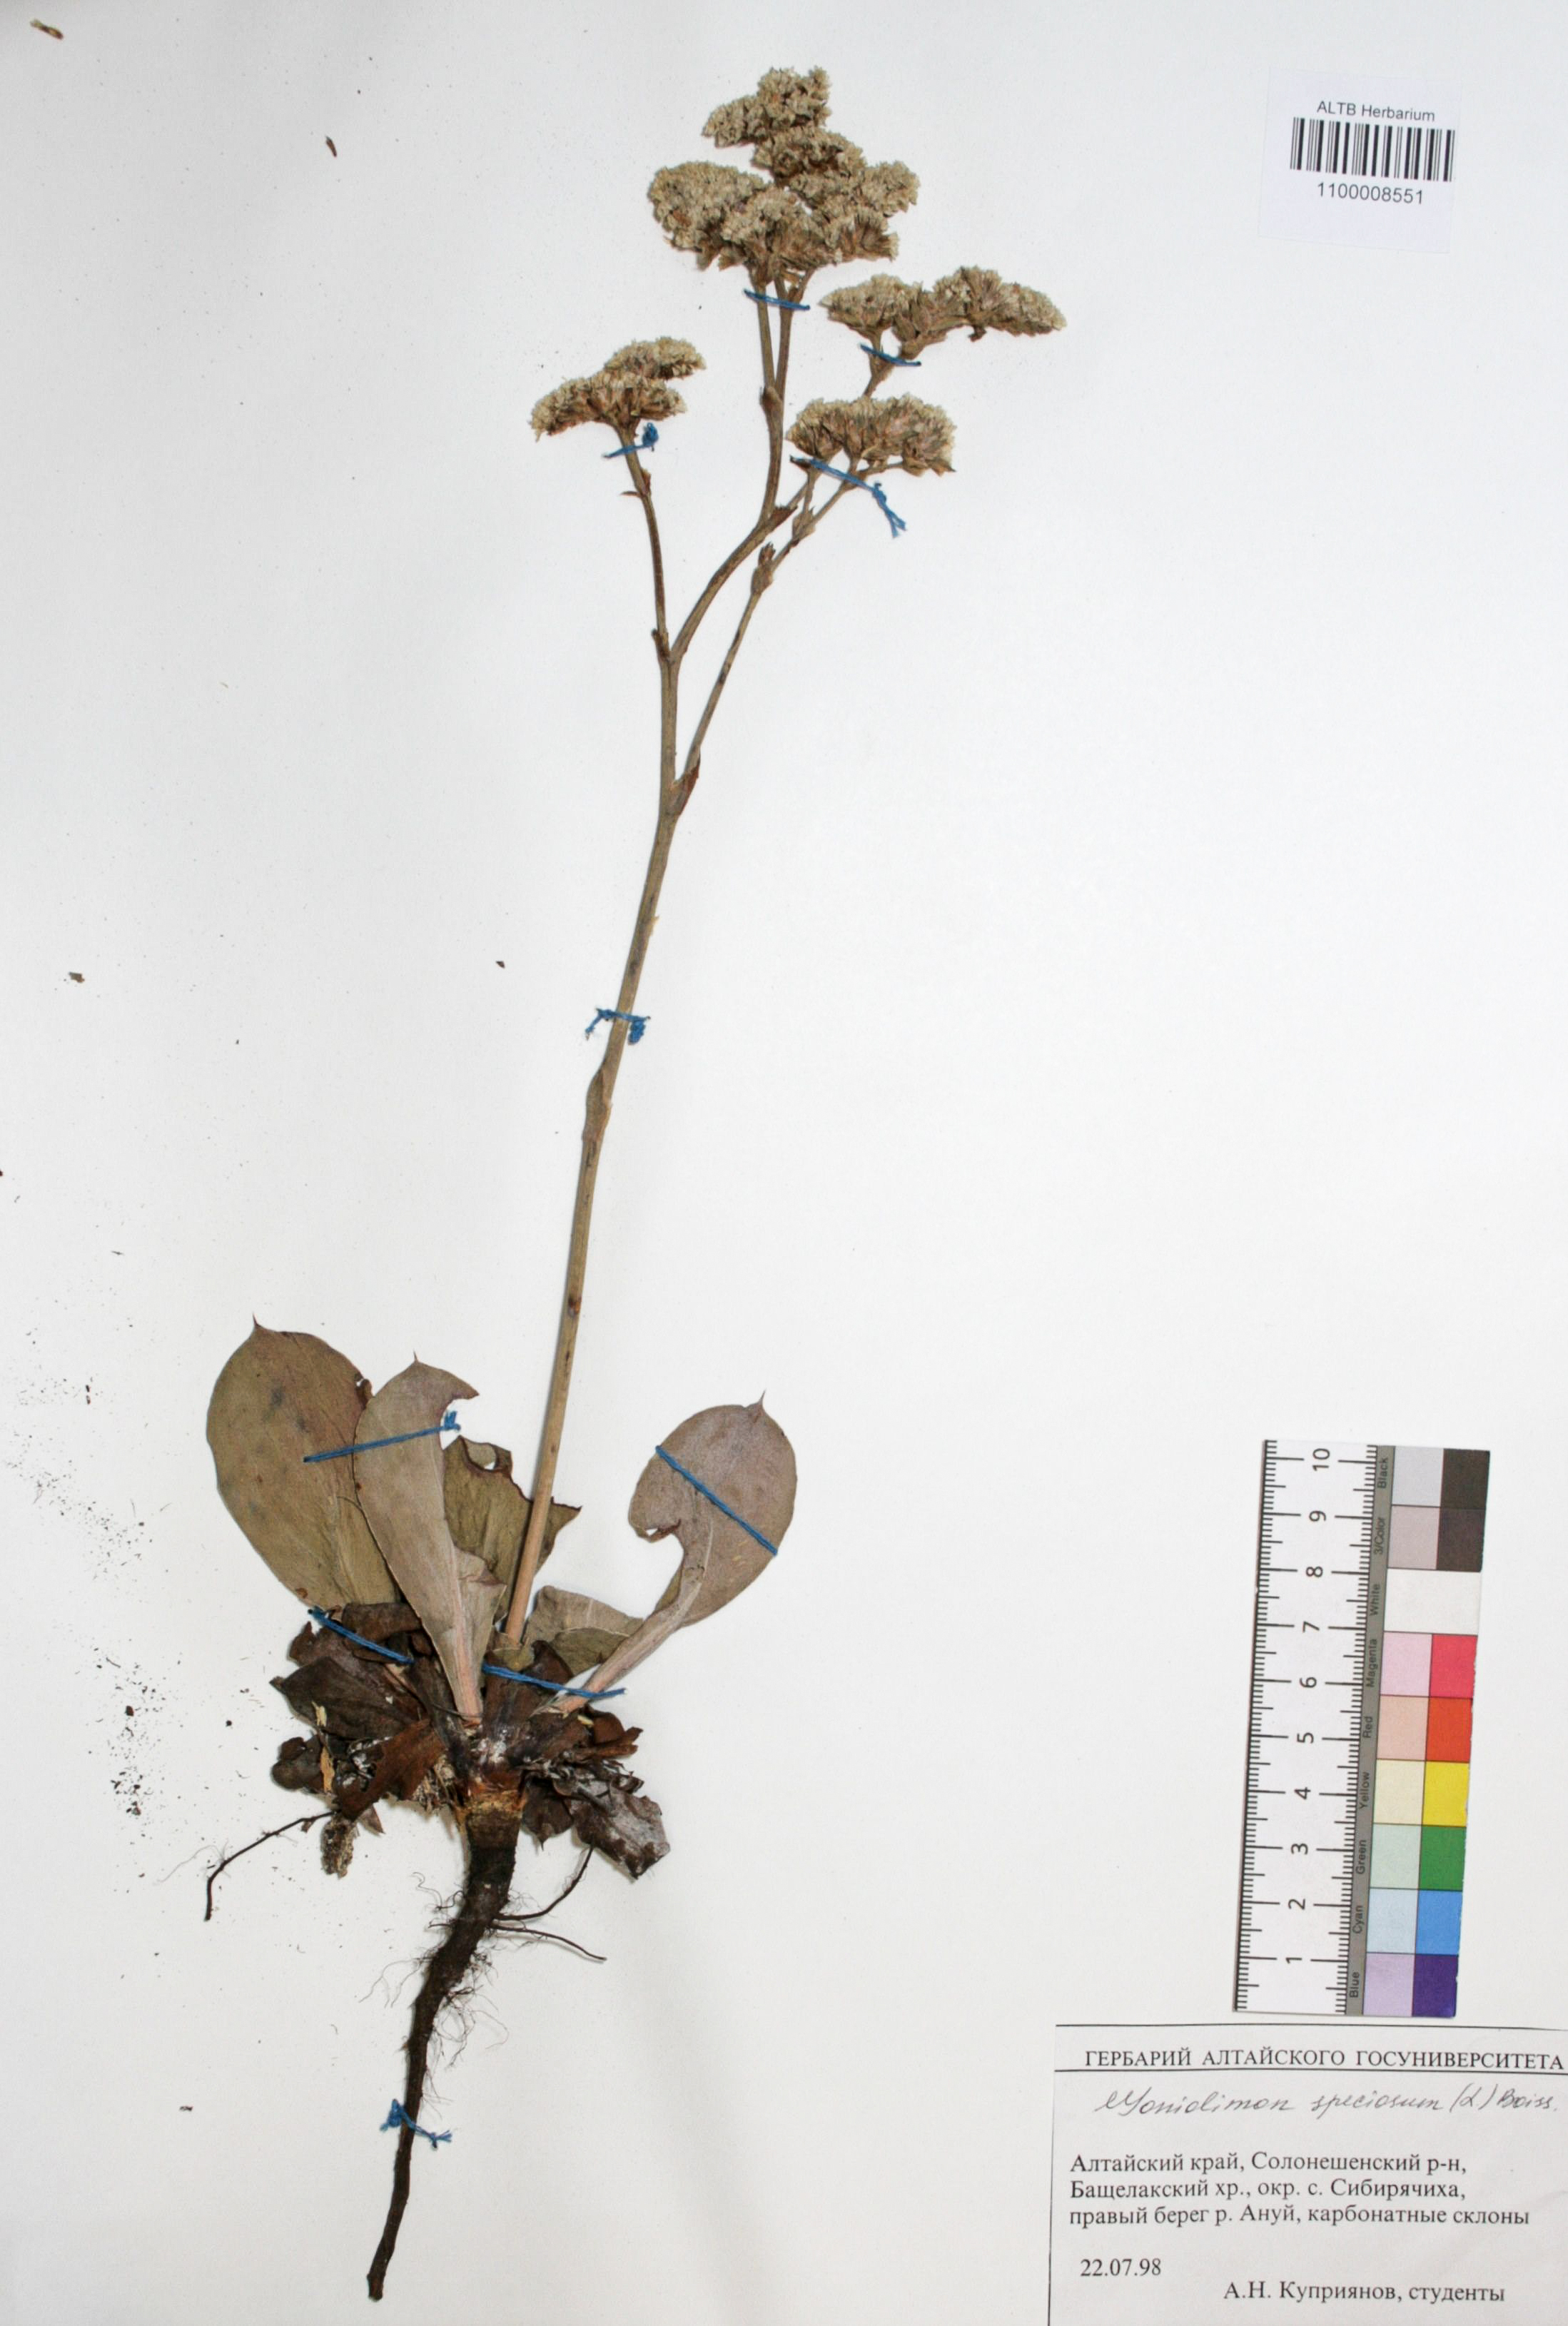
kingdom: Plantae
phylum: Tracheophyta
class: Magnoliopsida
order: Caryophyllales
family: Plumbaginaceae
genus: Goniolimon
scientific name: Goniolimon speciosum
